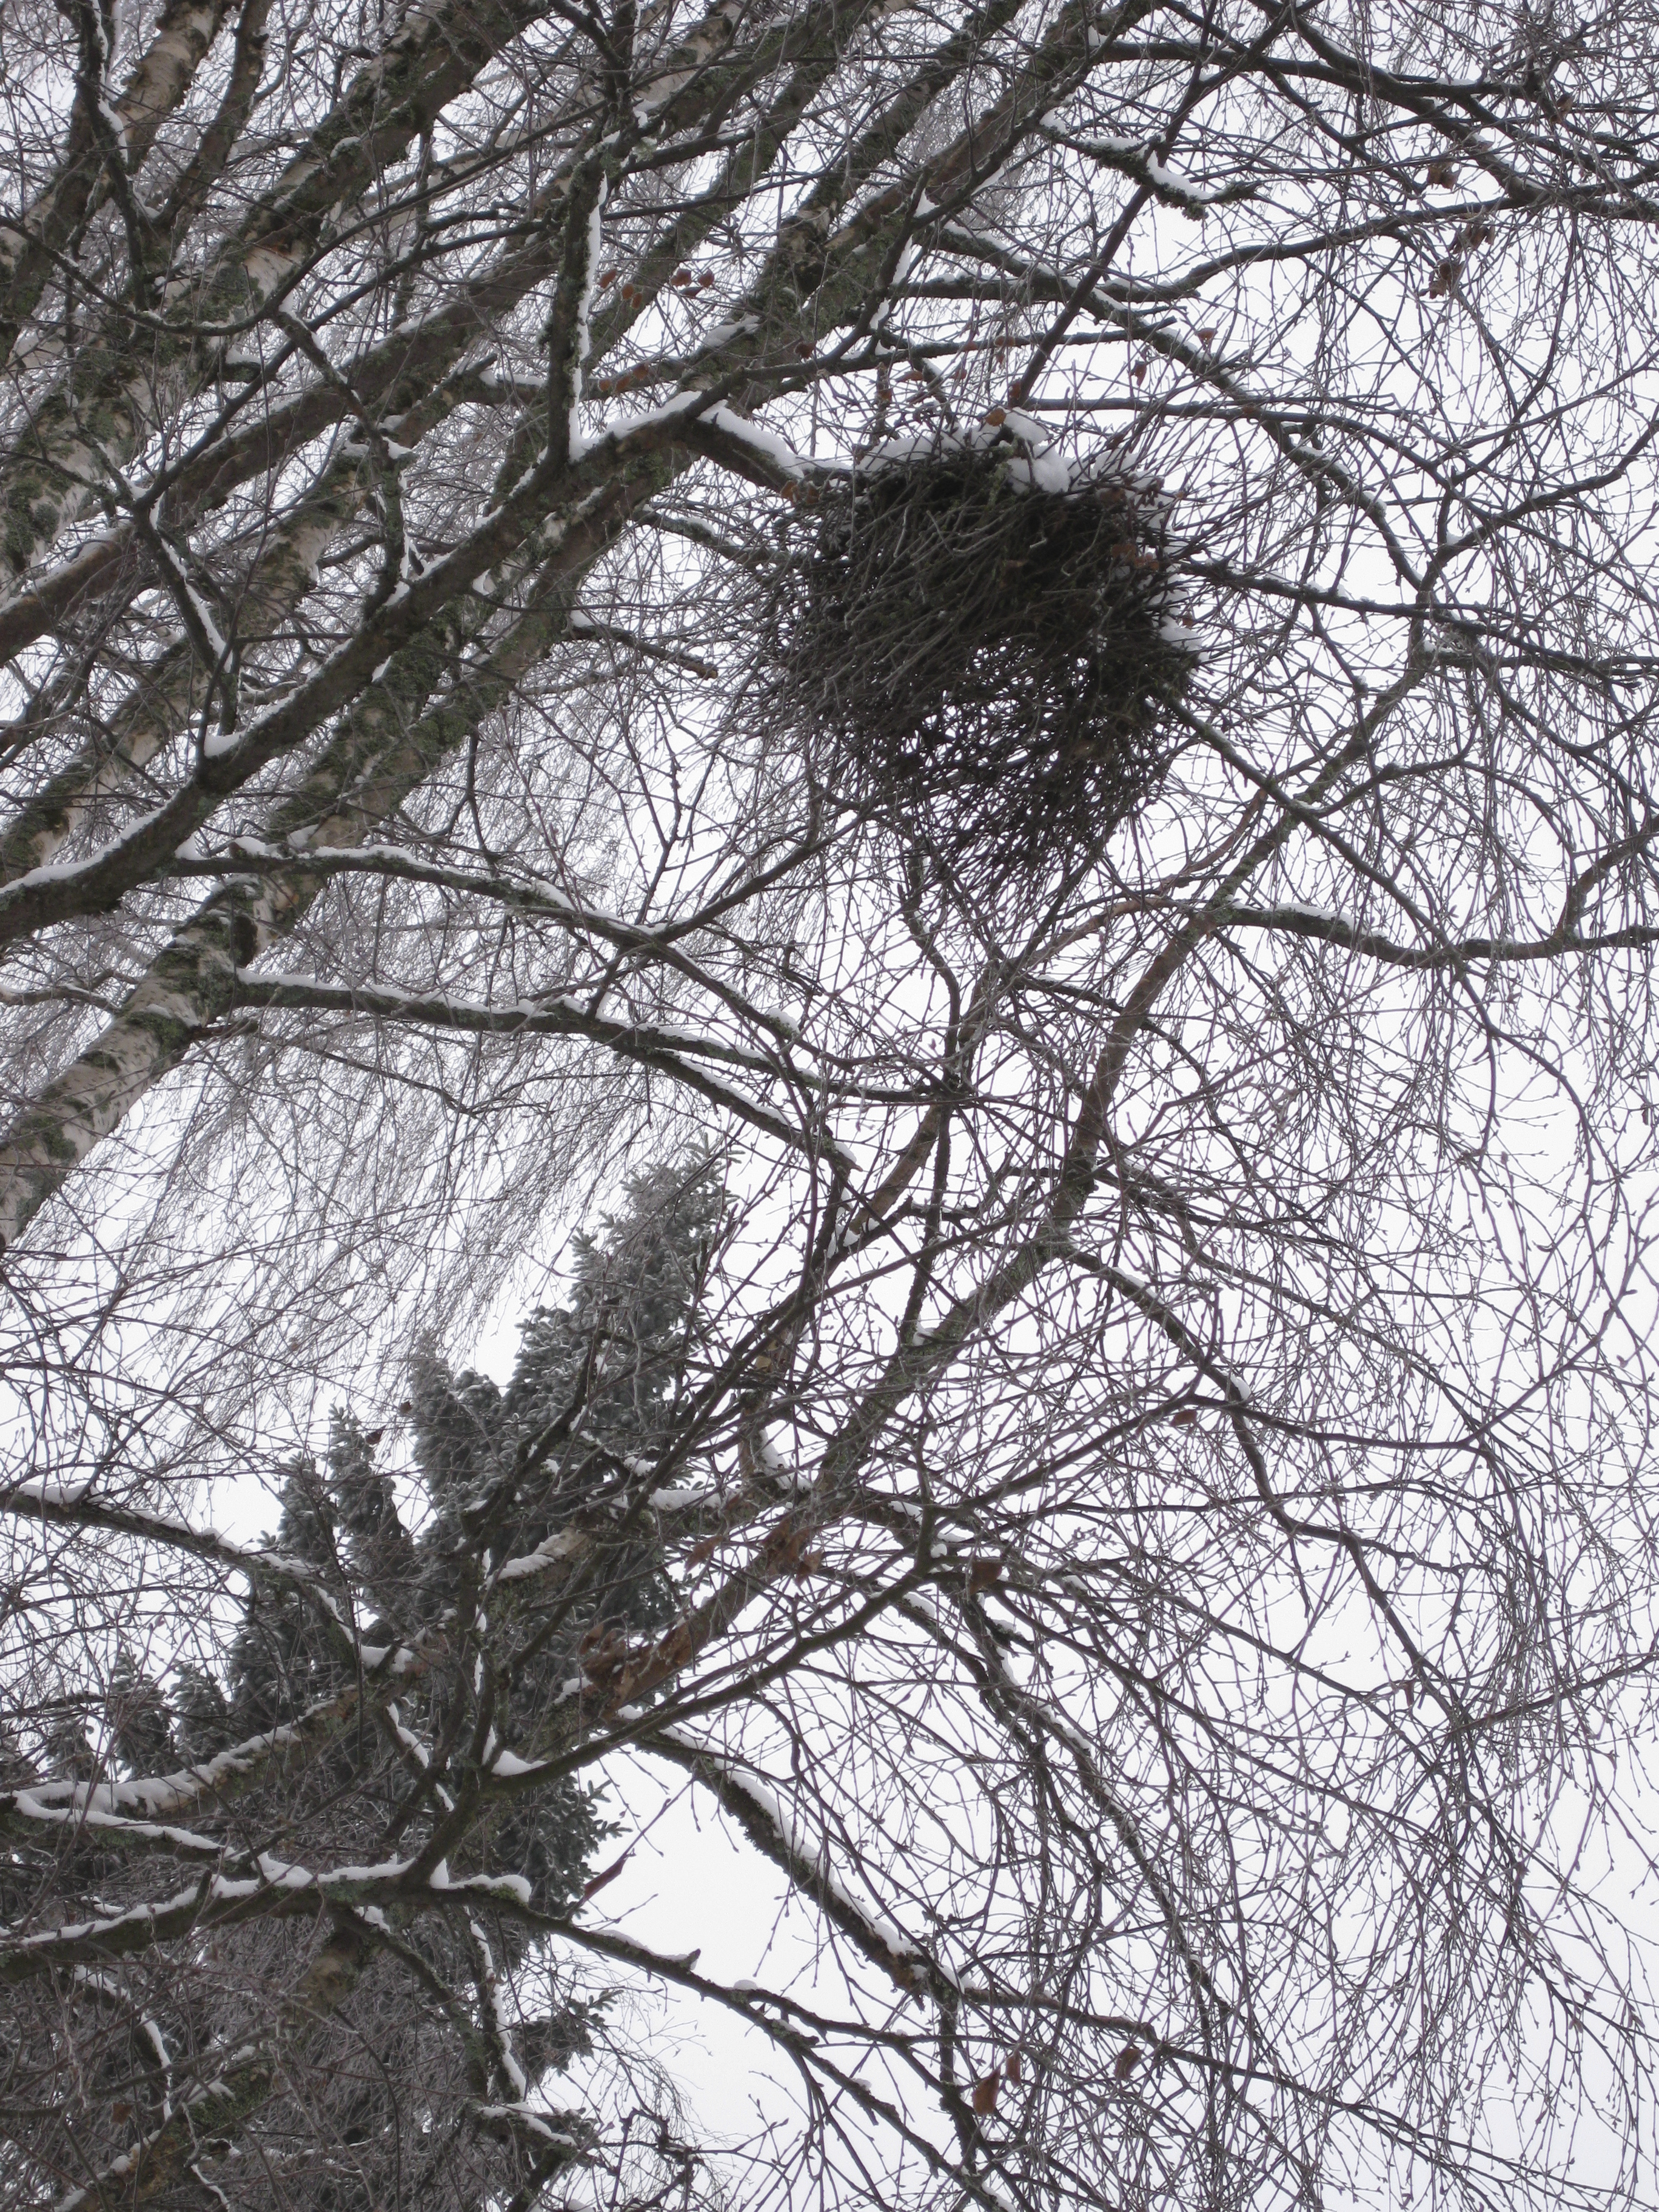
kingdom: Fungi
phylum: Ascomycota
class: Taphrinomycetes
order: Taphrinales
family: Taphrinaceae
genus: Taphrina
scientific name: Taphrina betulina
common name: Birch besom
